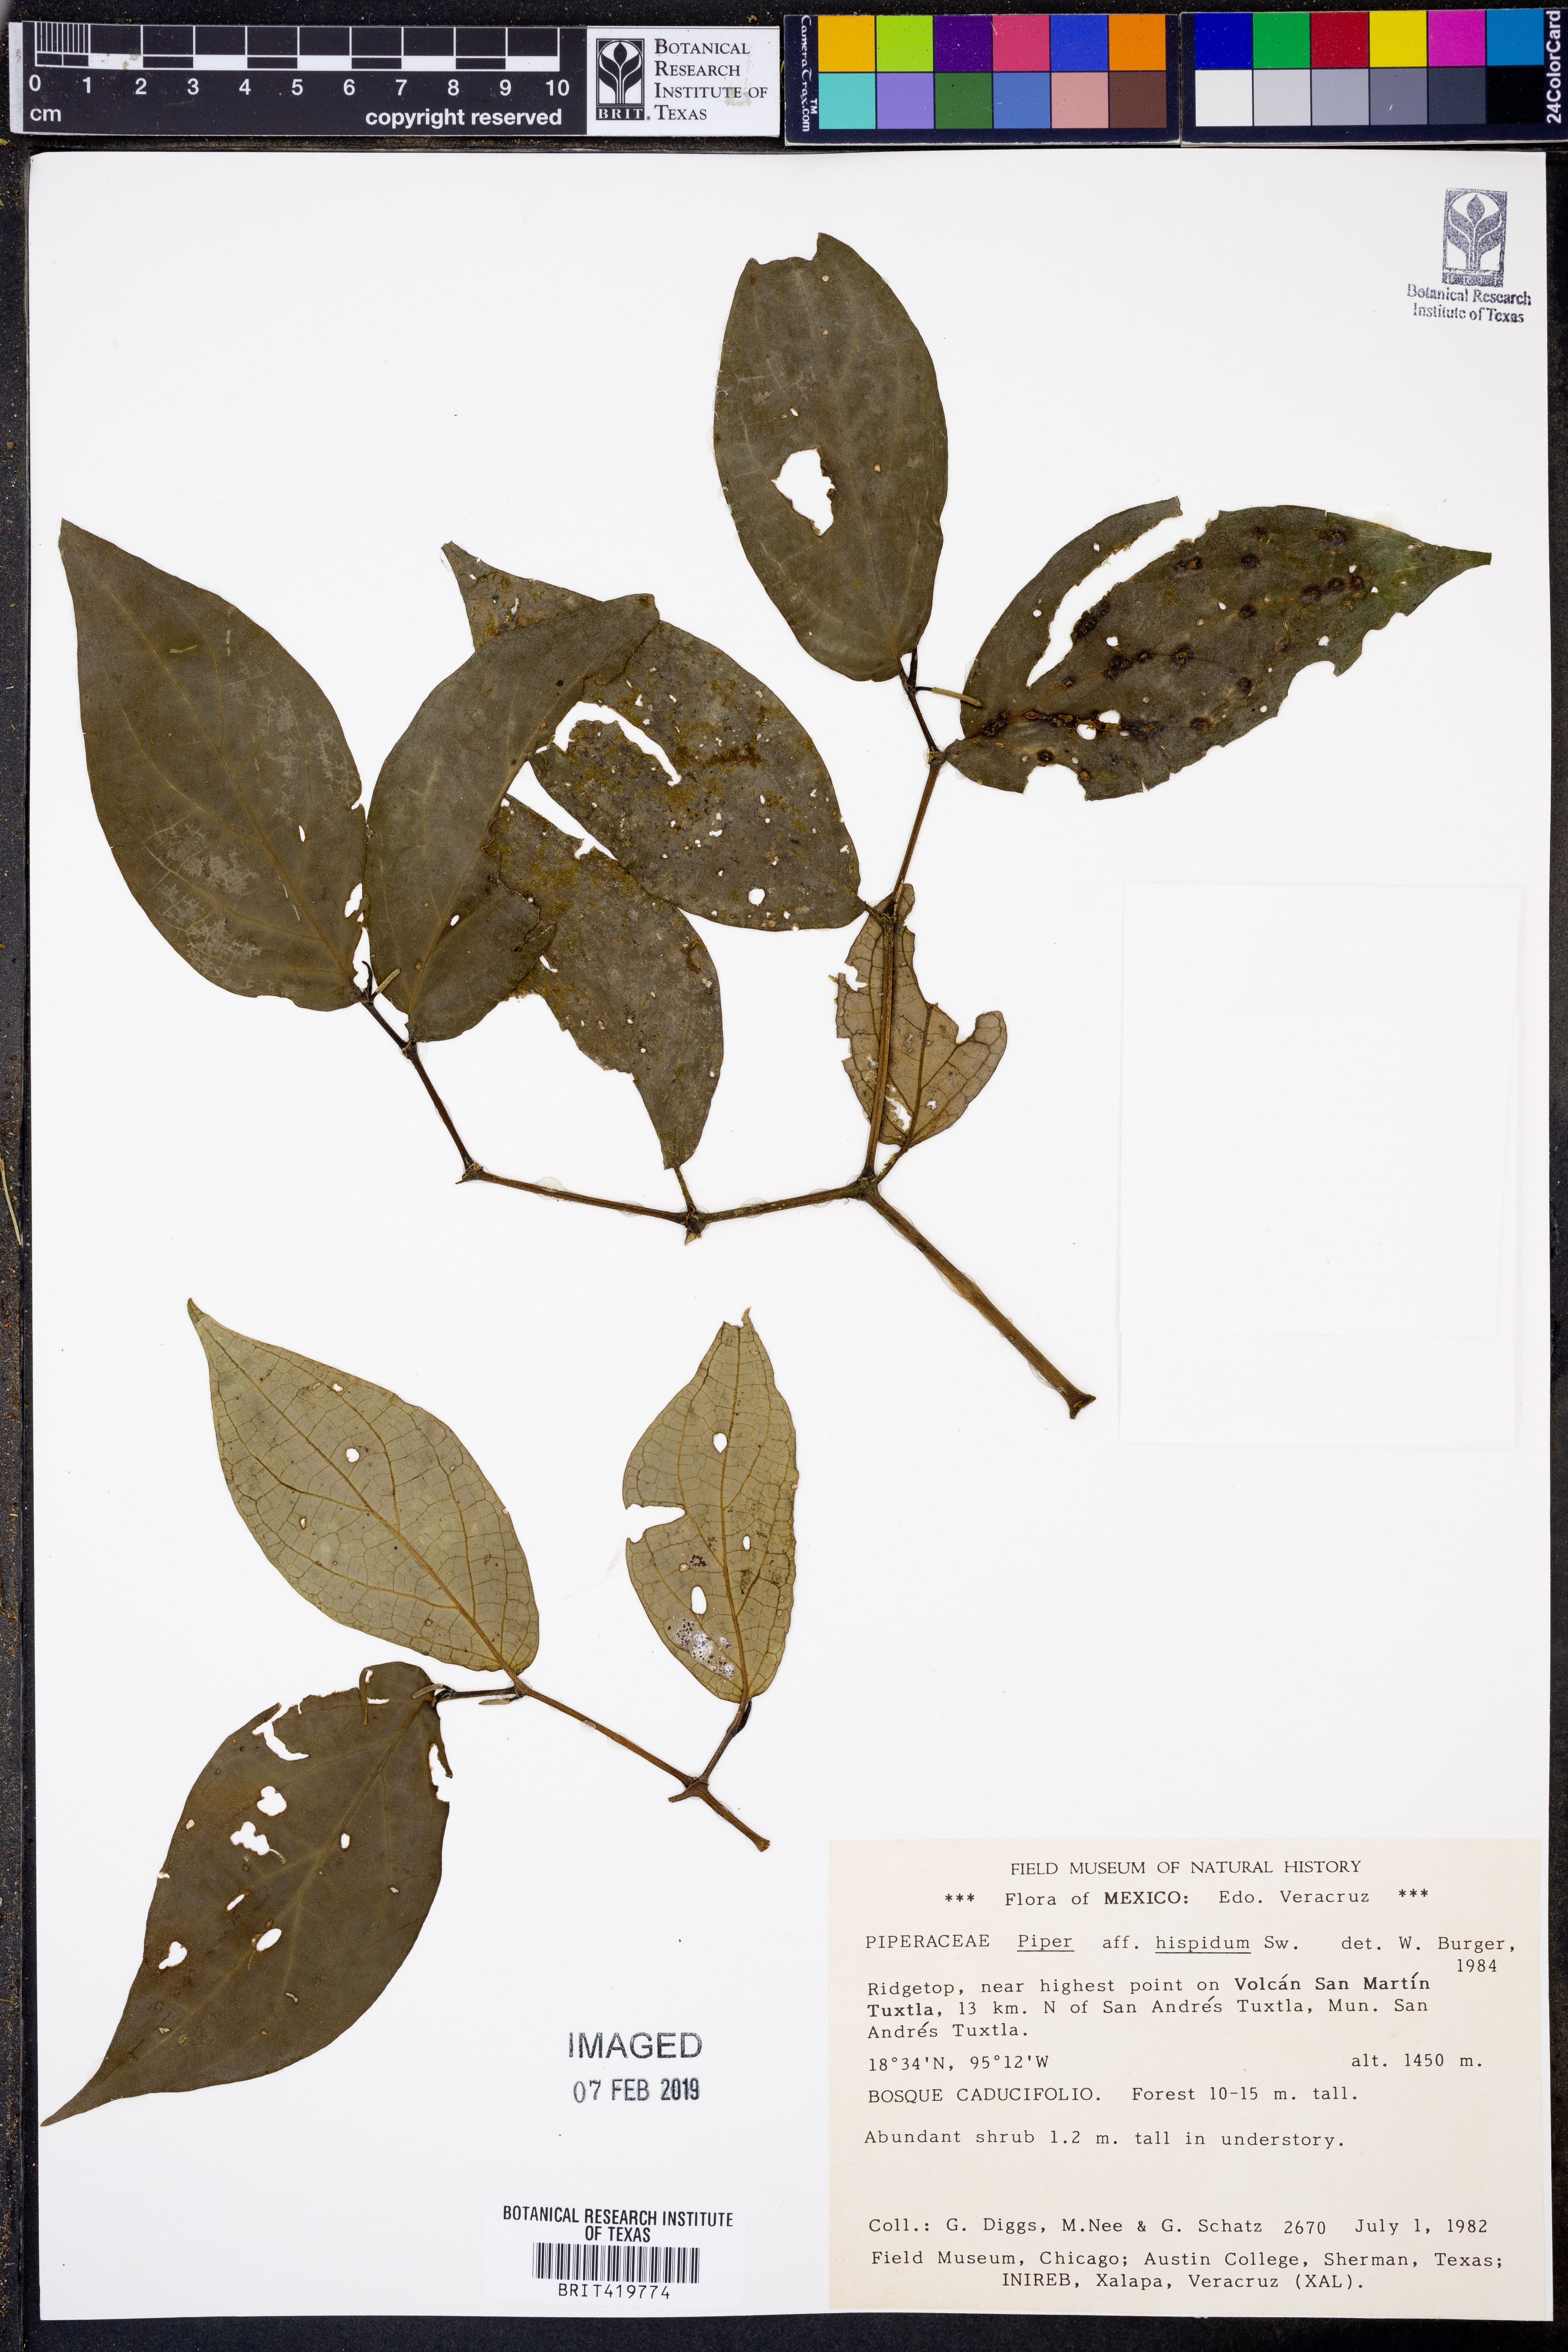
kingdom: Plantae
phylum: Tracheophyta
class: Magnoliopsida
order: Piperales
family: Piperaceae
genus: Piper
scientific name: Piper hispidum
